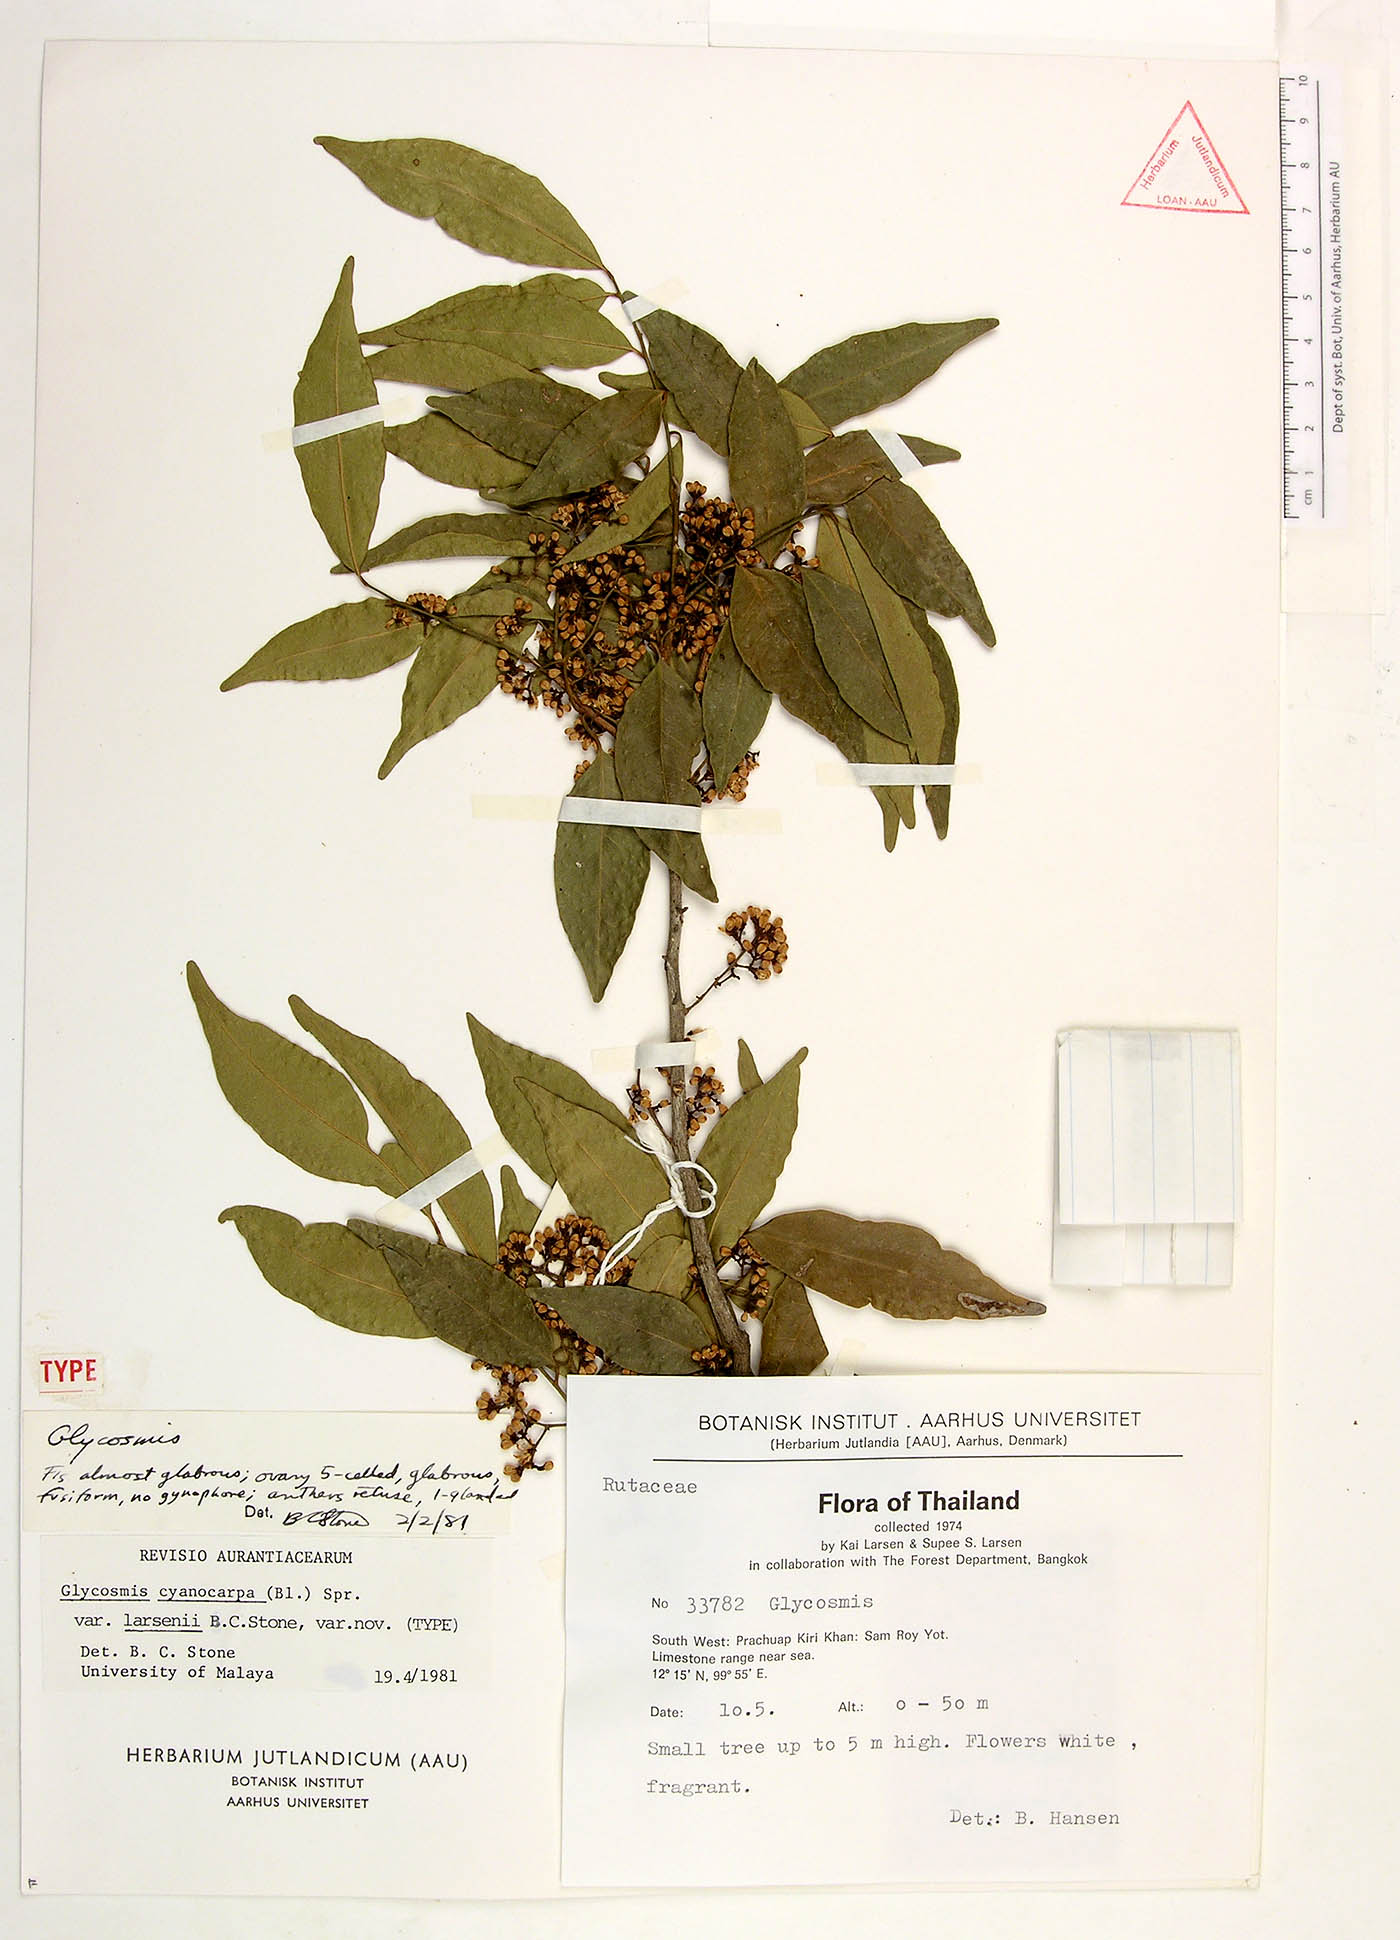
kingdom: Plantae
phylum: Tracheophyta
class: Magnoliopsida
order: Sapindales
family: Rutaceae
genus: Glycosmis
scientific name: Glycosmis cyanocarpa
